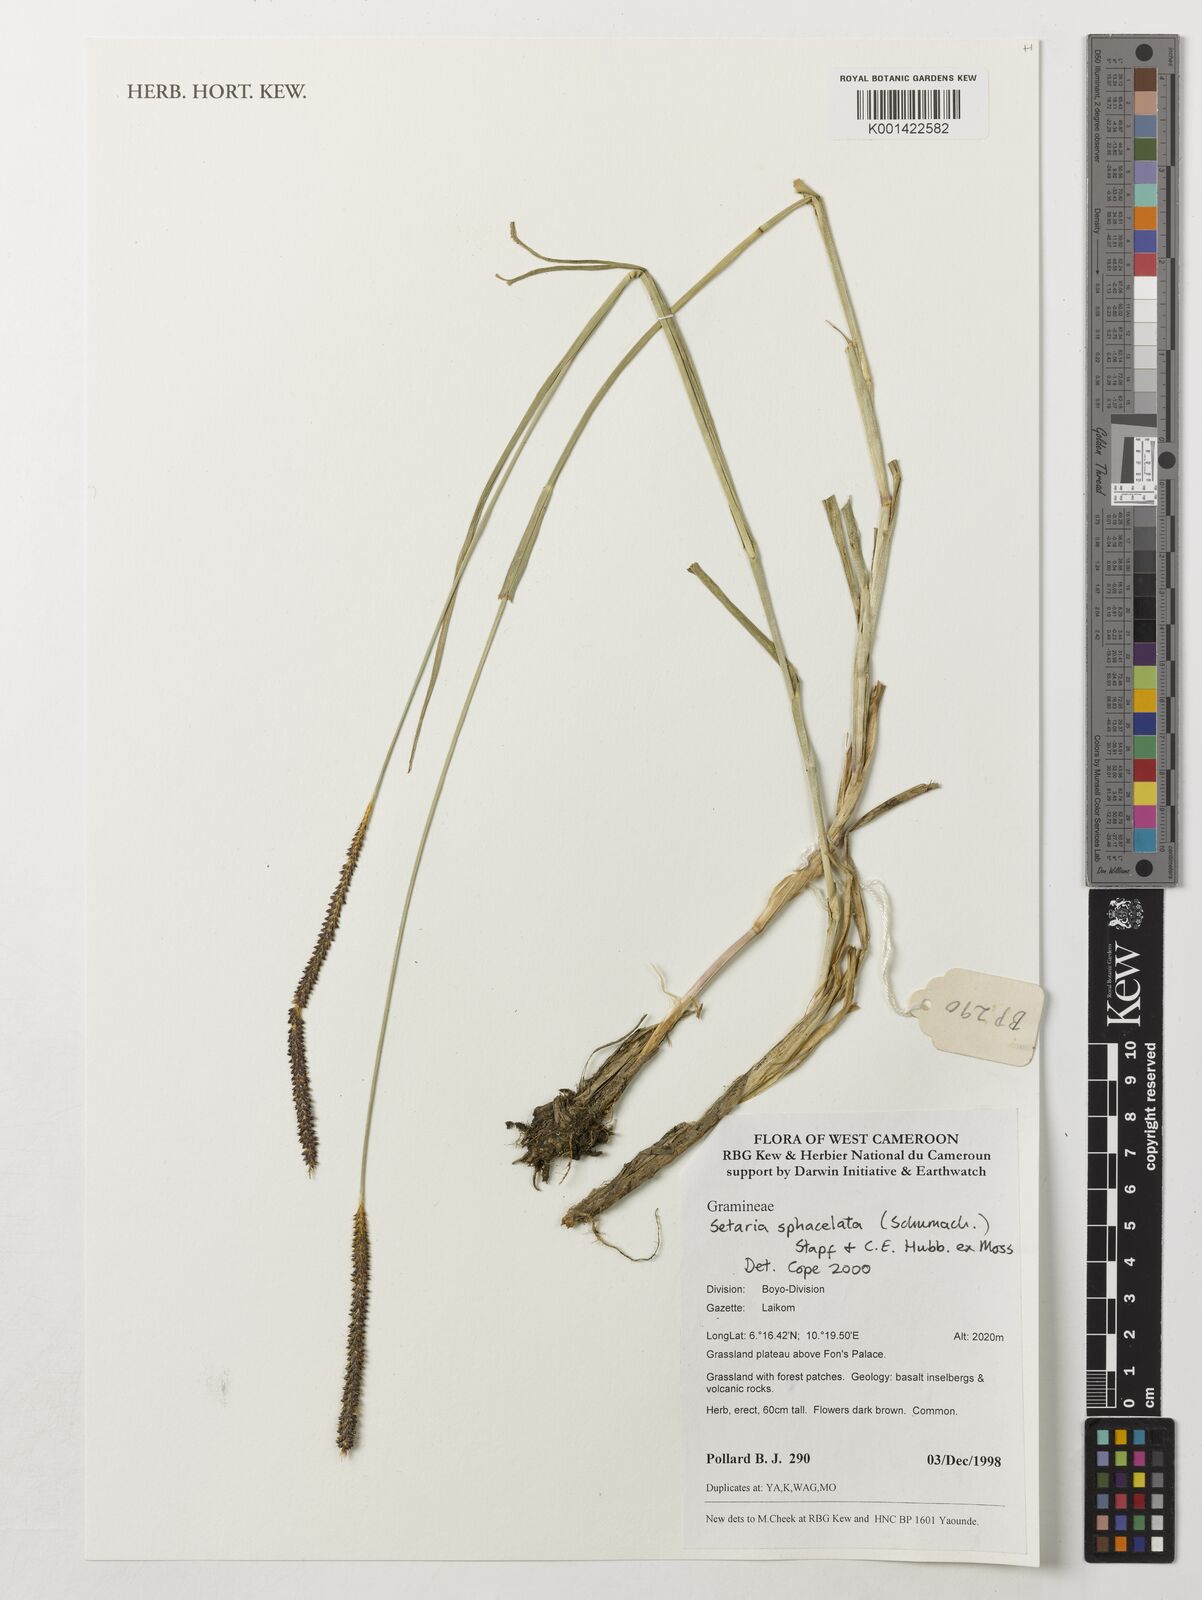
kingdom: Plantae
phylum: Tracheophyta
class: Liliopsida
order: Poales
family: Poaceae
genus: Setaria
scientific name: Setaria sphacelata
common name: African bristlegrass
